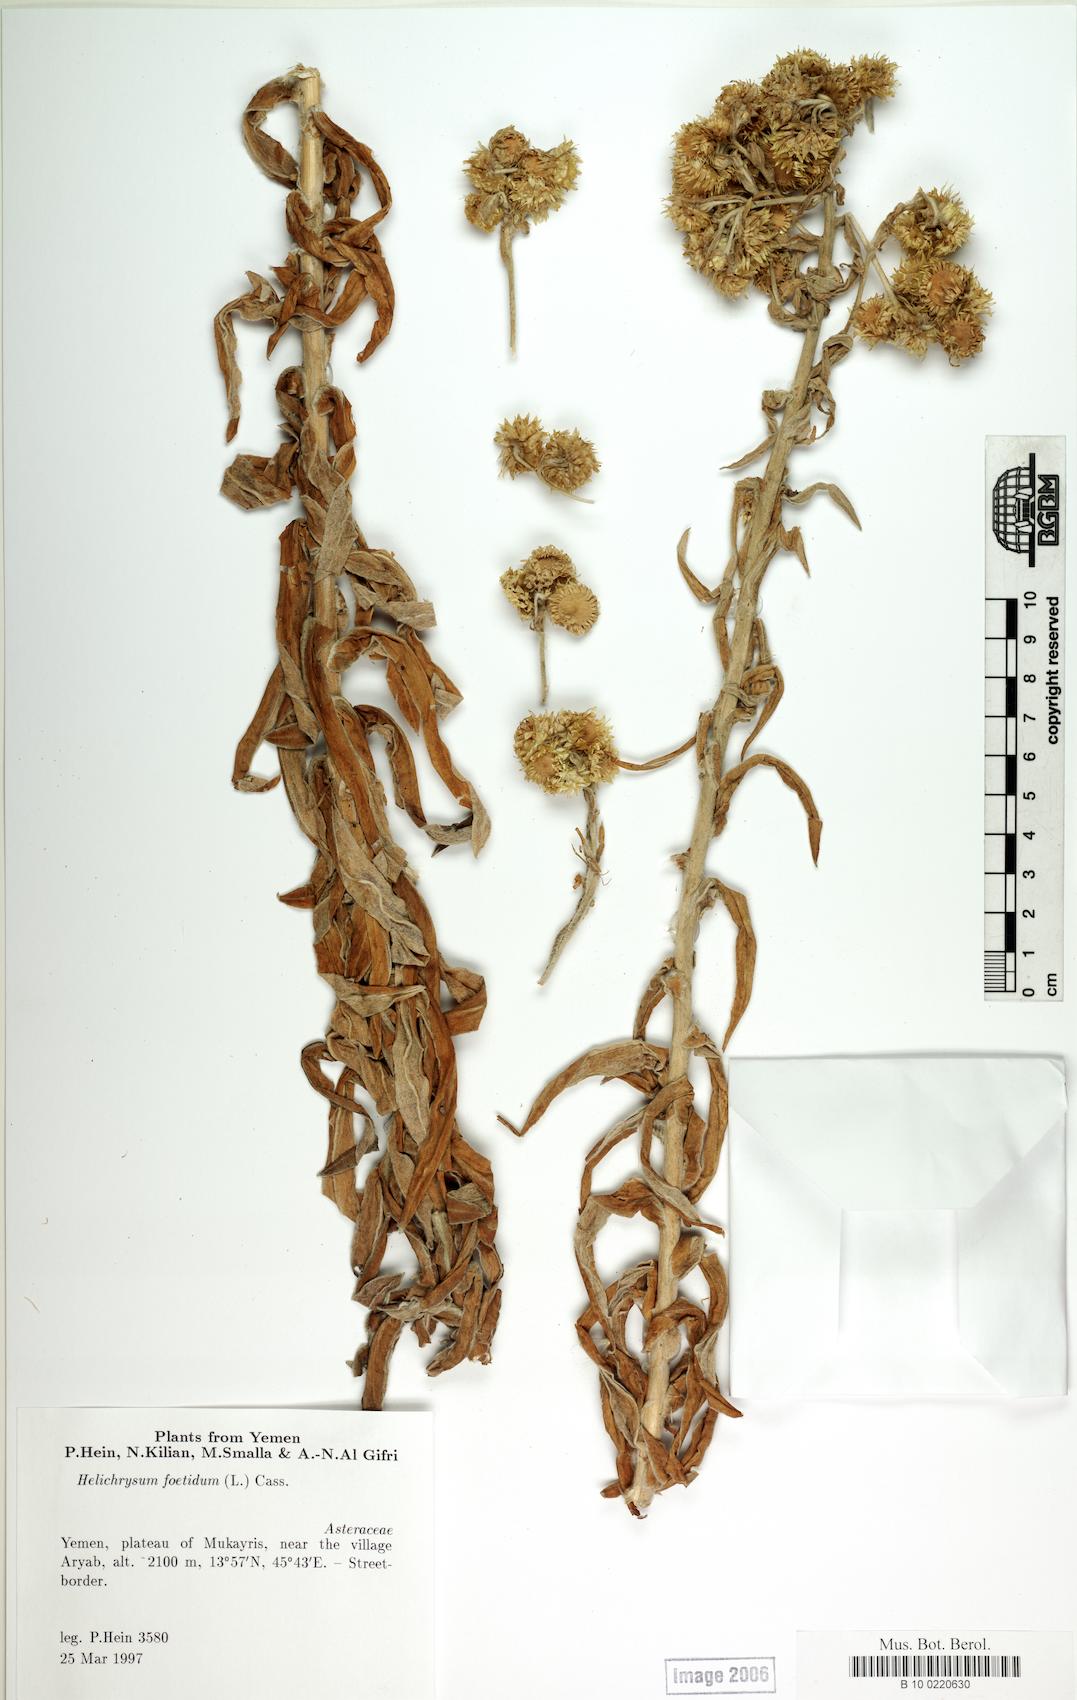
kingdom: Plantae
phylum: Tracheophyta
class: Magnoliopsida
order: Caryophyllales
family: Caryophyllaceae
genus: Arenaria
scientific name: Arenaria serpyllifolia
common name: Thyme-leaved sandwort
